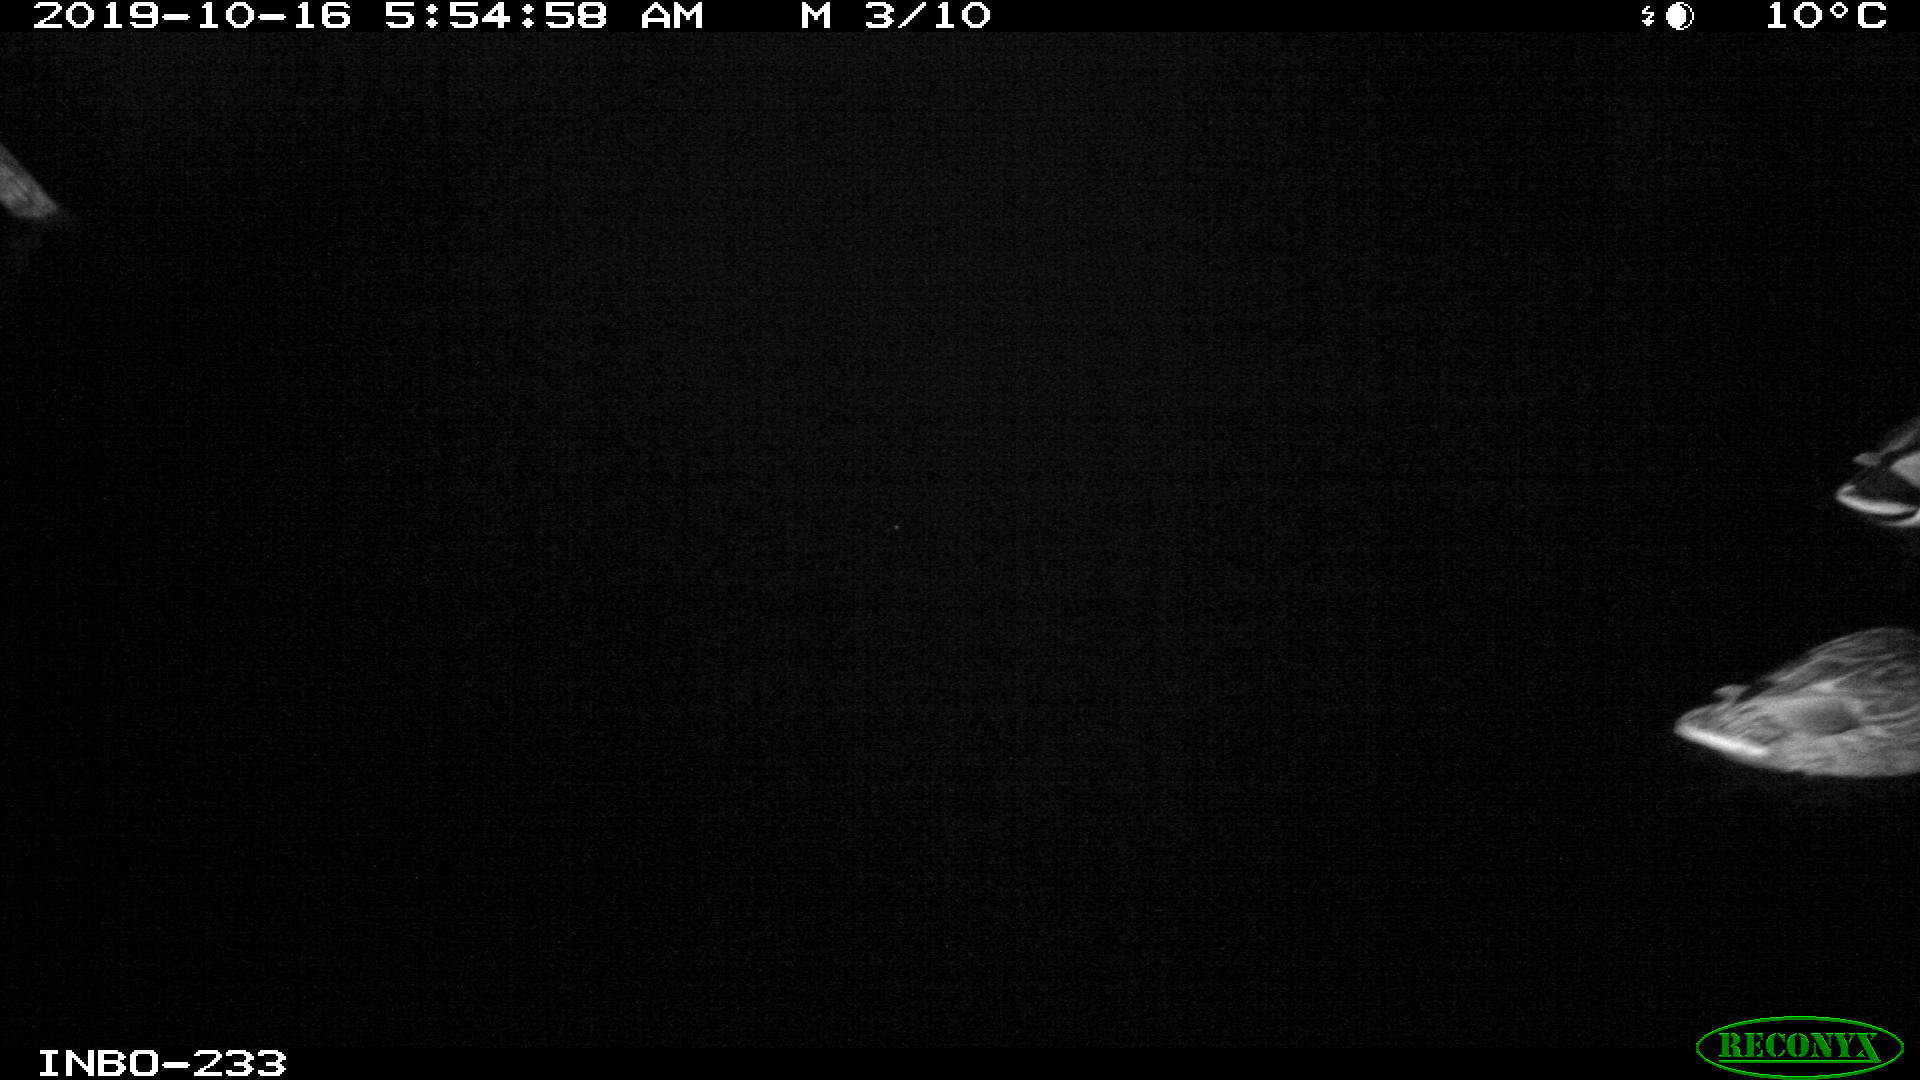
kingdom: Animalia
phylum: Chordata
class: Aves
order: Anseriformes
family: Anatidae
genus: Anas
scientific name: Anas platyrhynchos
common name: Mallard
